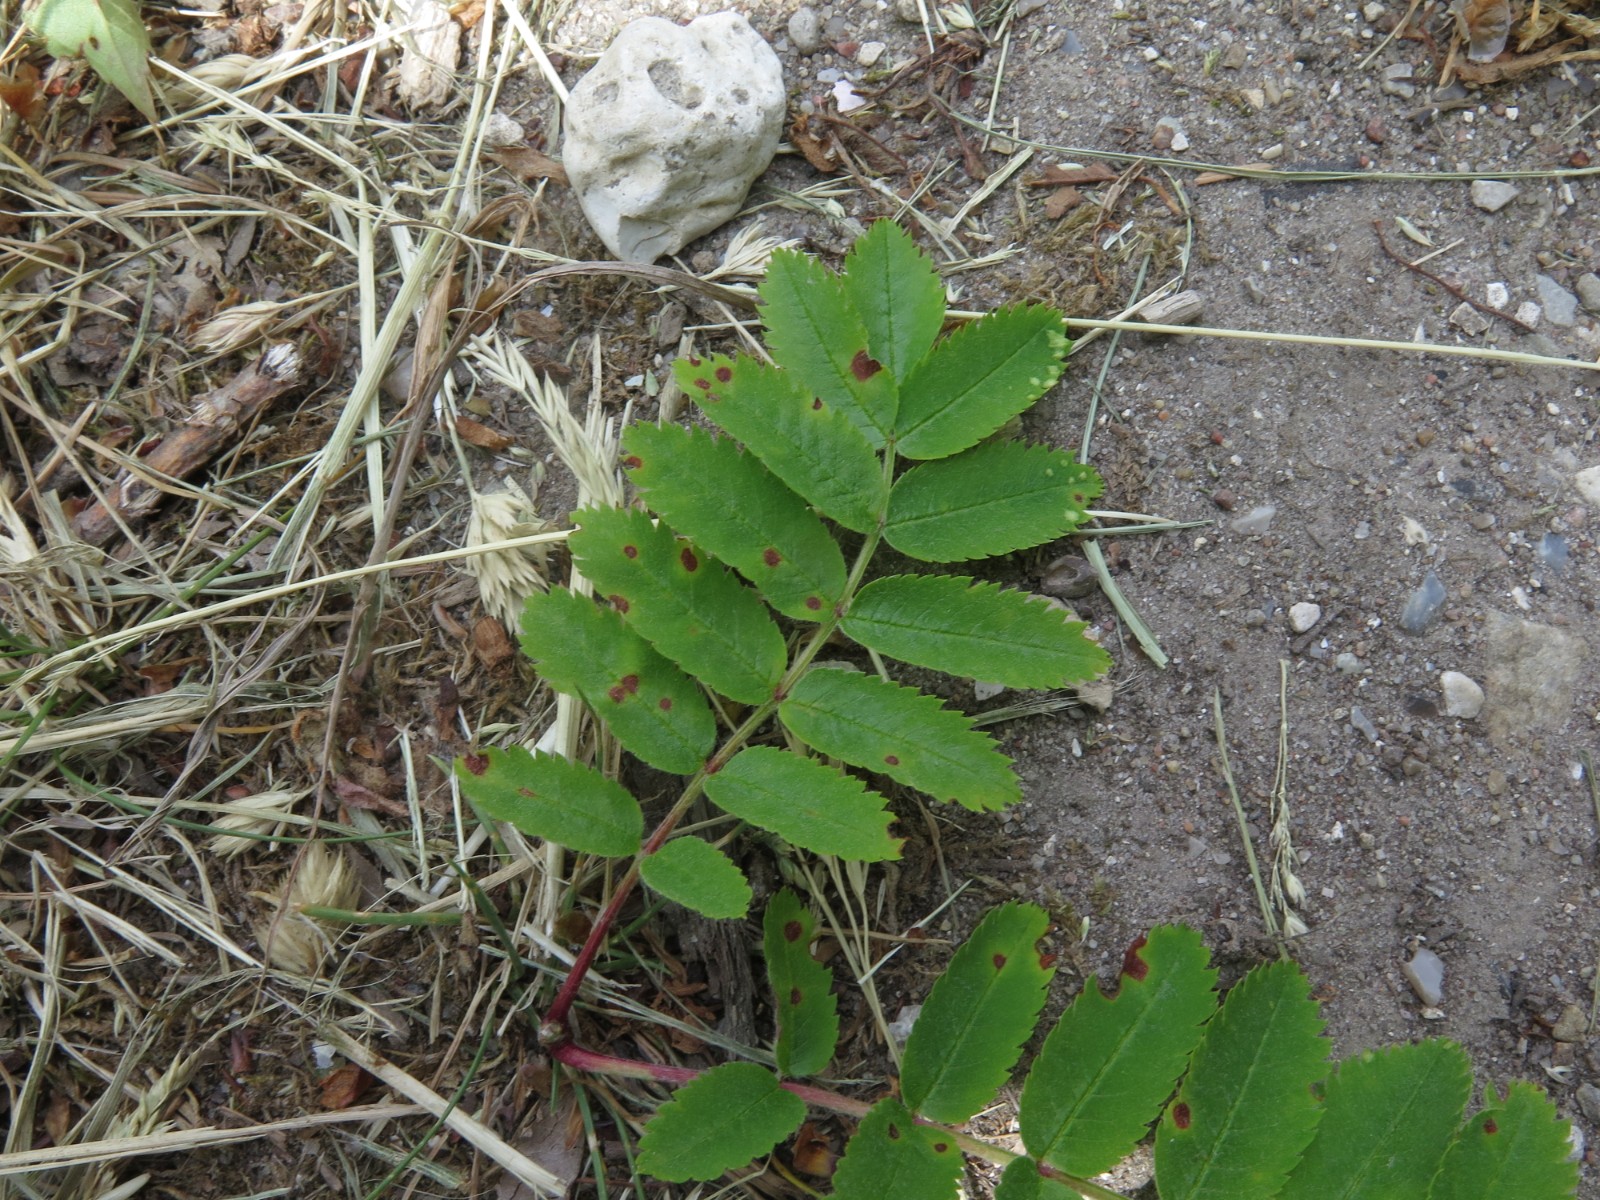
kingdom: Fungi
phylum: Ascomycota
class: Dothideomycetes
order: Venturiales
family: Venturiaceae
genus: Venturia
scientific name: Venturia inaequalis
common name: Apple scab
